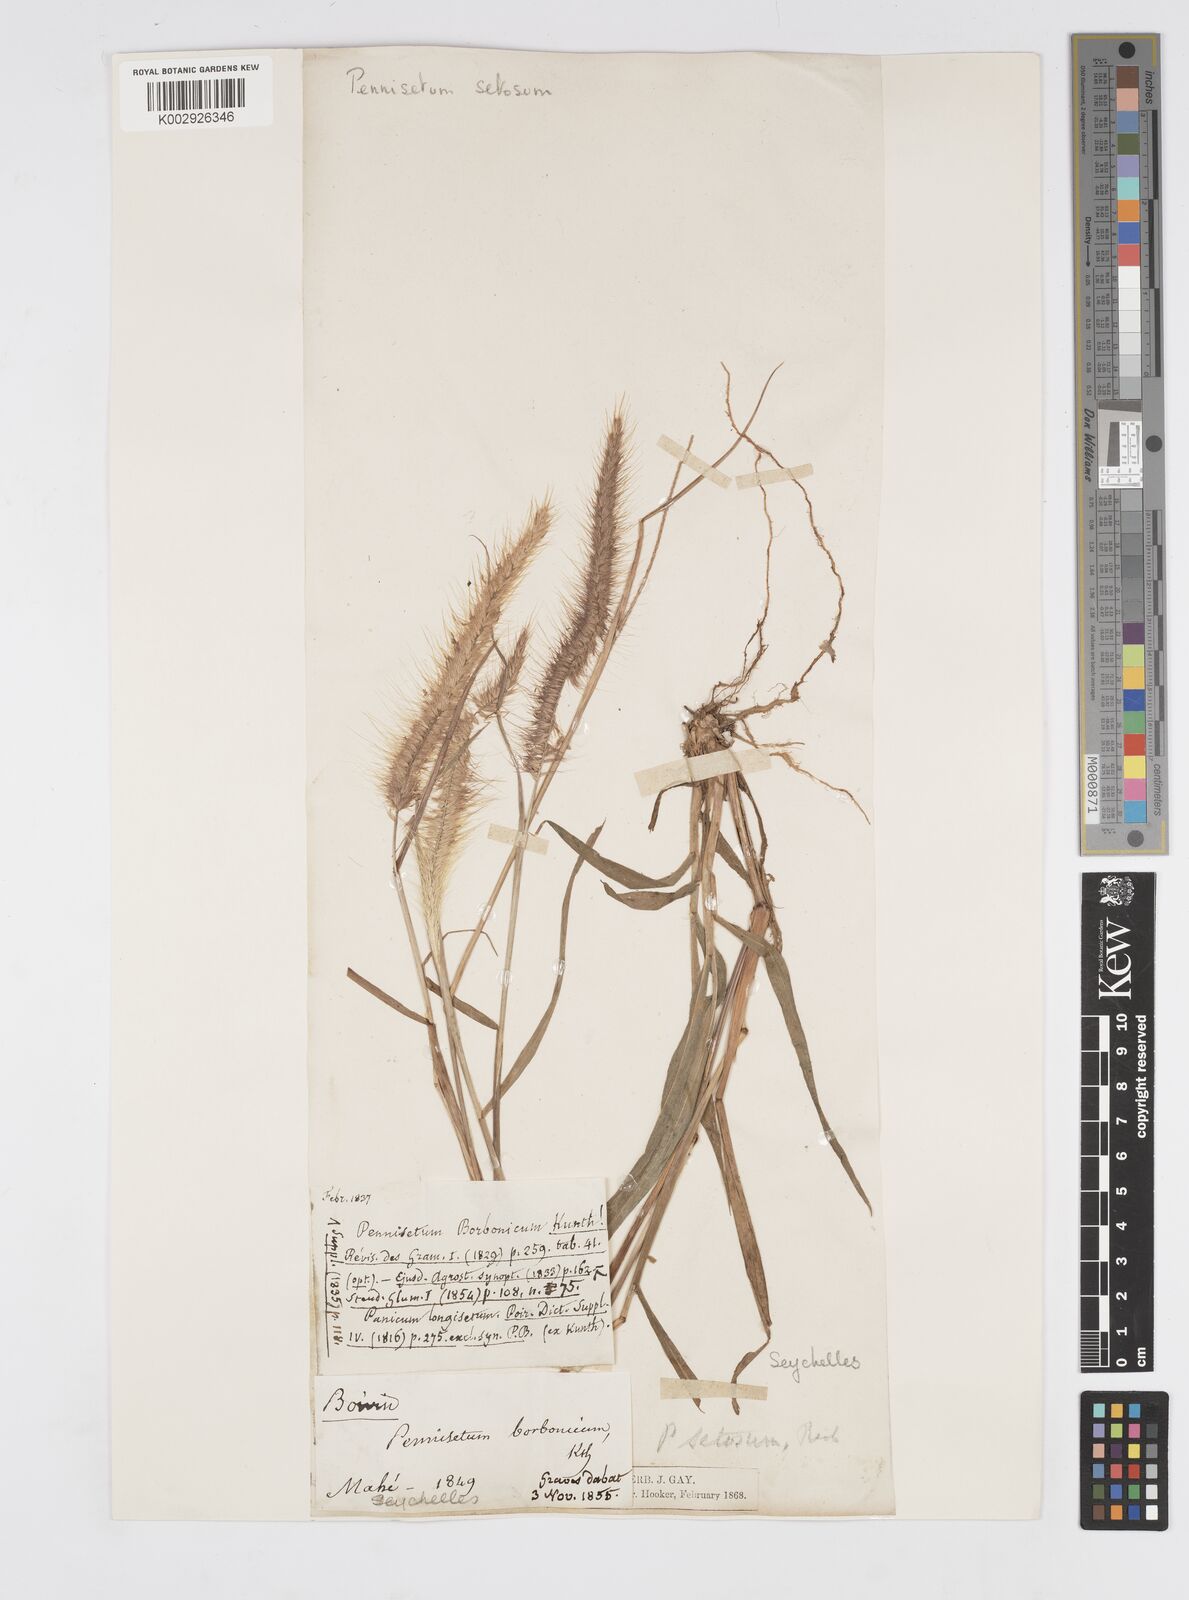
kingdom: Plantae
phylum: Tracheophyta
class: Liliopsida
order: Poales
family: Poaceae
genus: Setaria
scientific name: Setaria parviflora
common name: Knotroot bristle-grass
